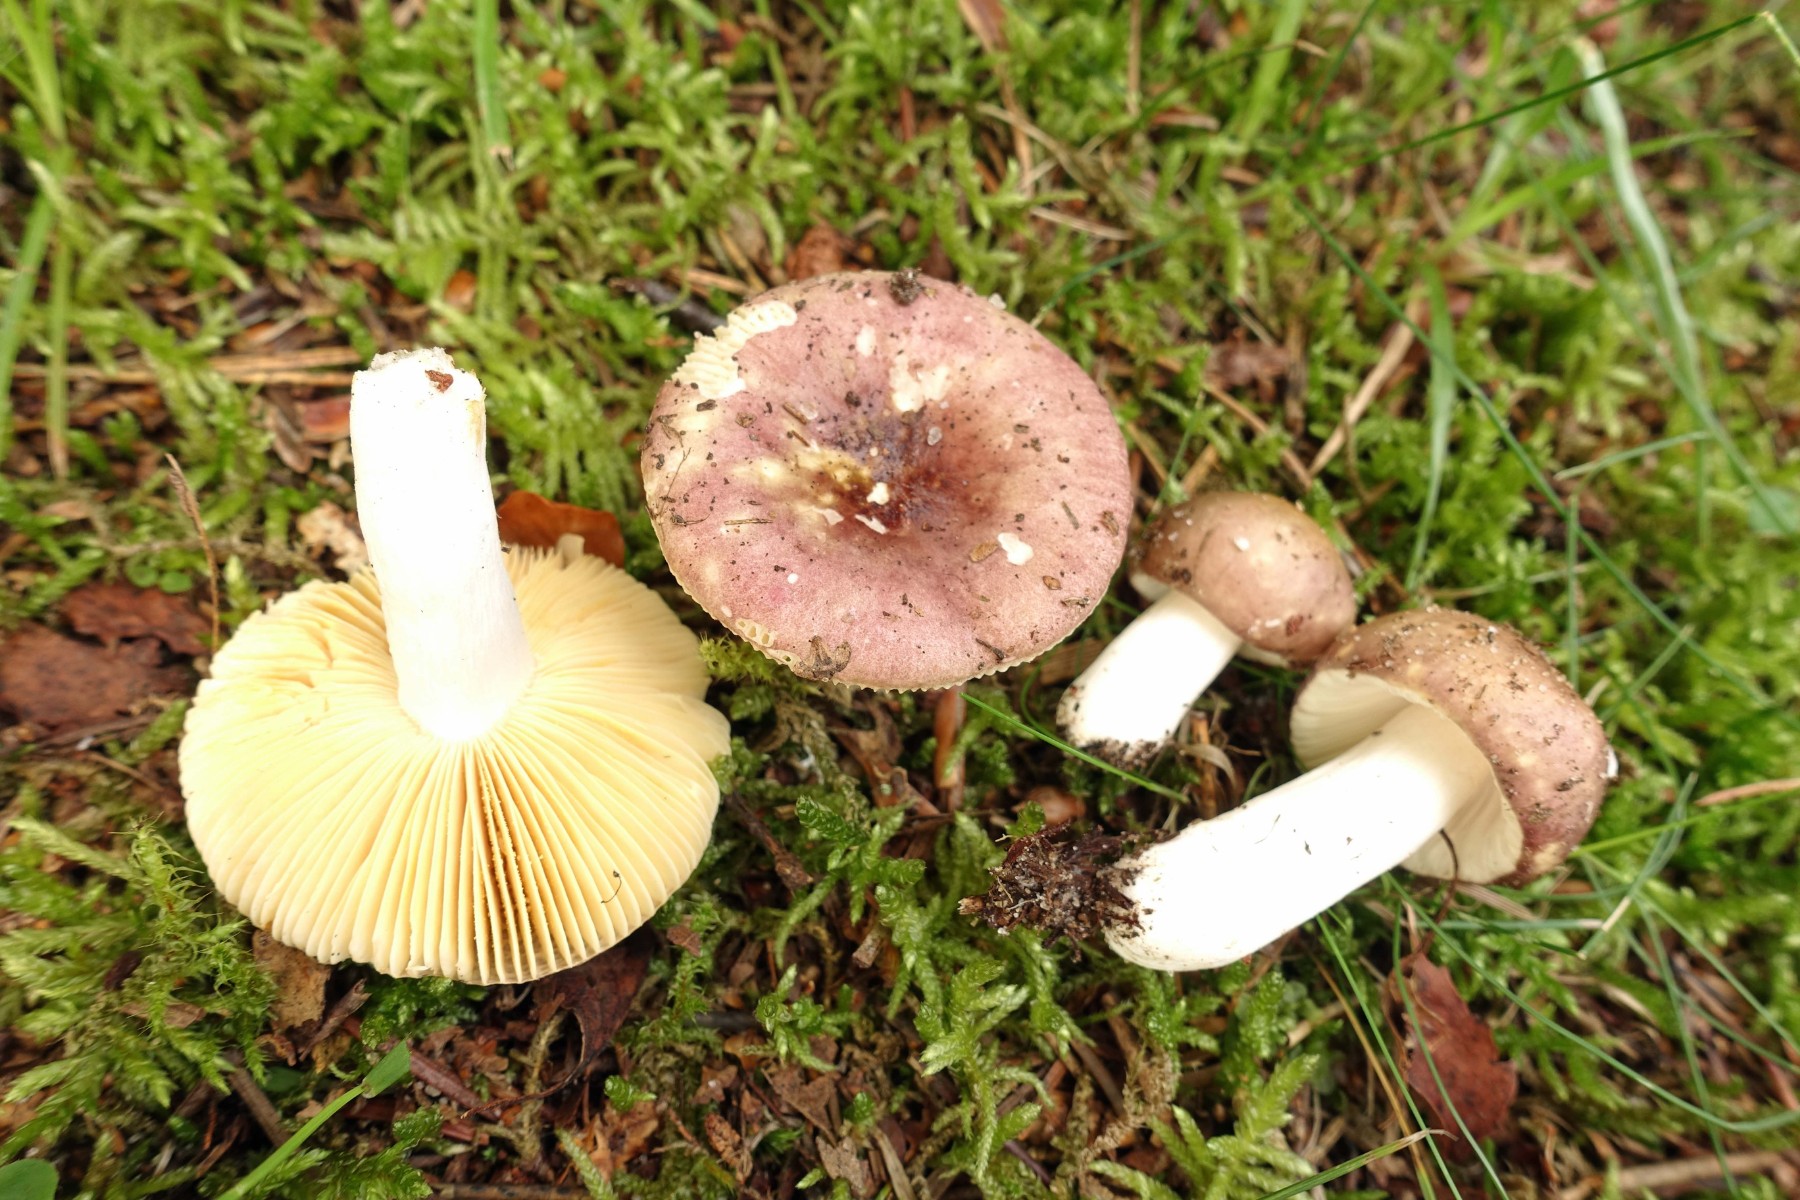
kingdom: Fungi
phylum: Basidiomycota
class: Agaricomycetes
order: Russulales
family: Russulaceae
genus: Russula
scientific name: Russula nauseosa
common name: spinkel skørhat
